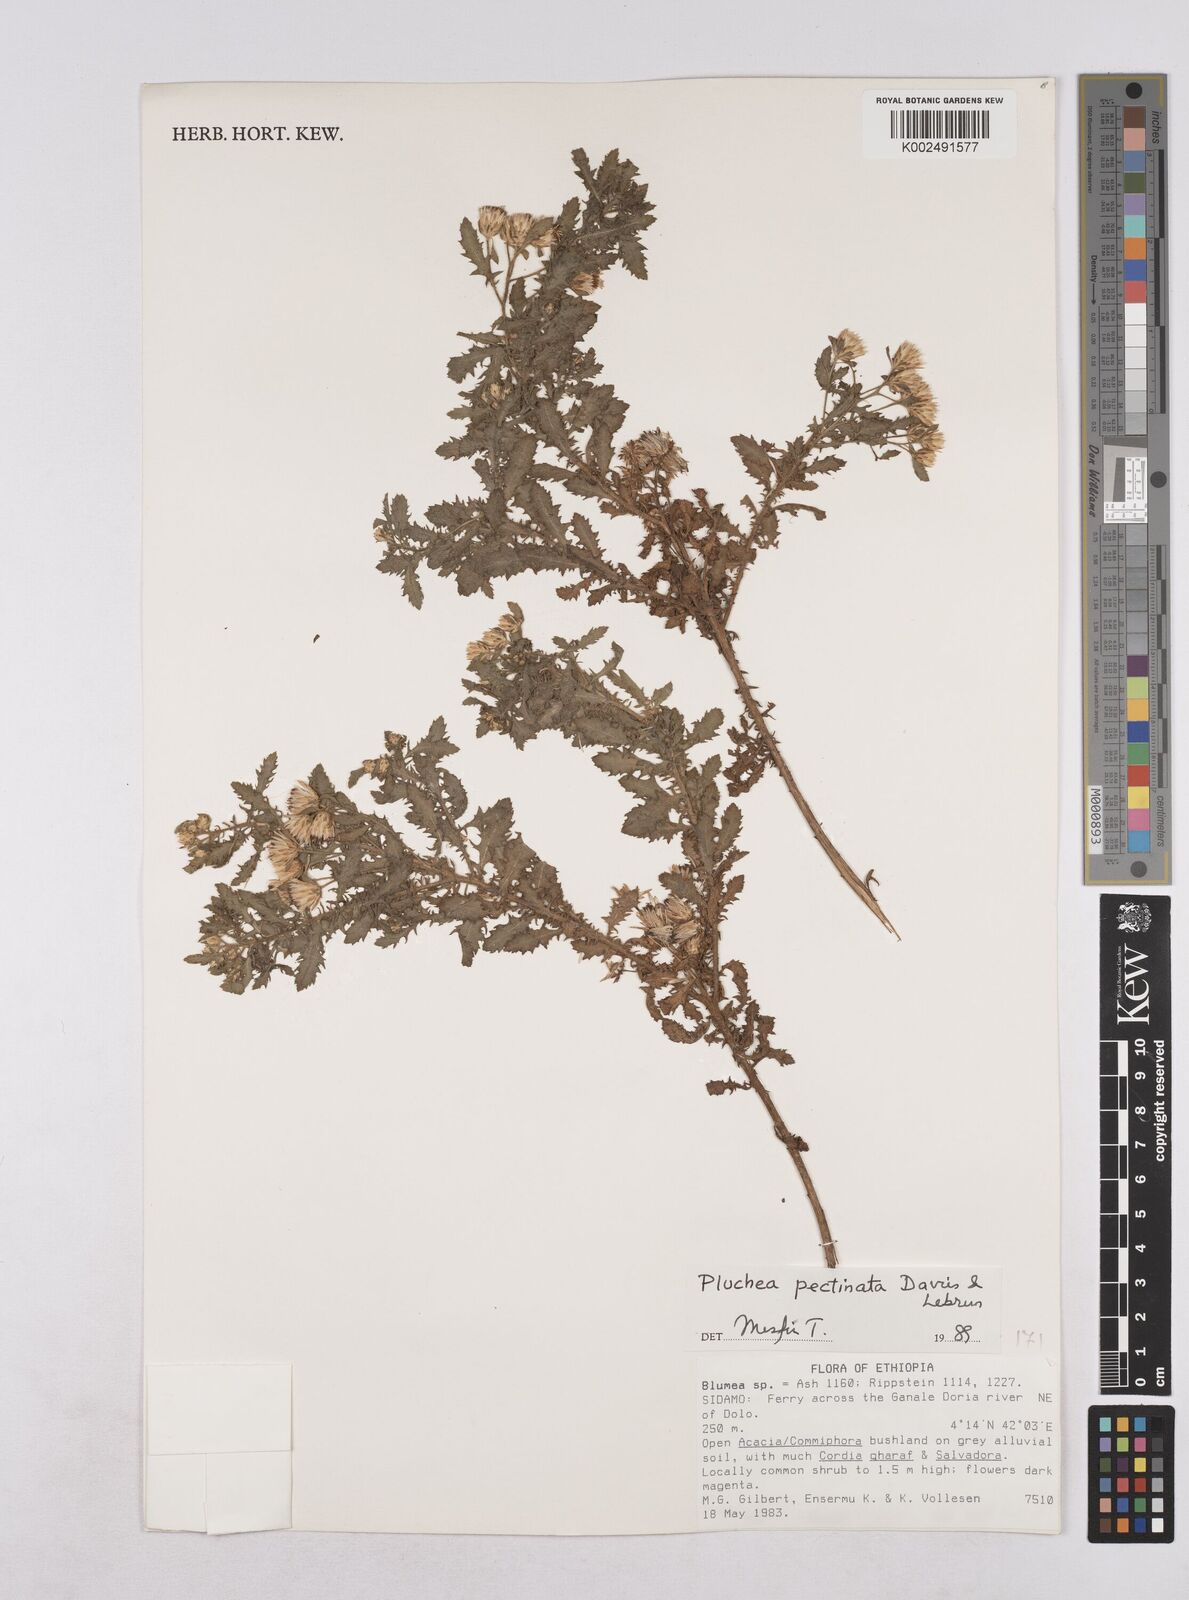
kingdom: Plantae
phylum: Tracheophyta
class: Magnoliopsida
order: Asterales
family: Asteraceae
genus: Pluchea
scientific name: Pluchea somaliensis
